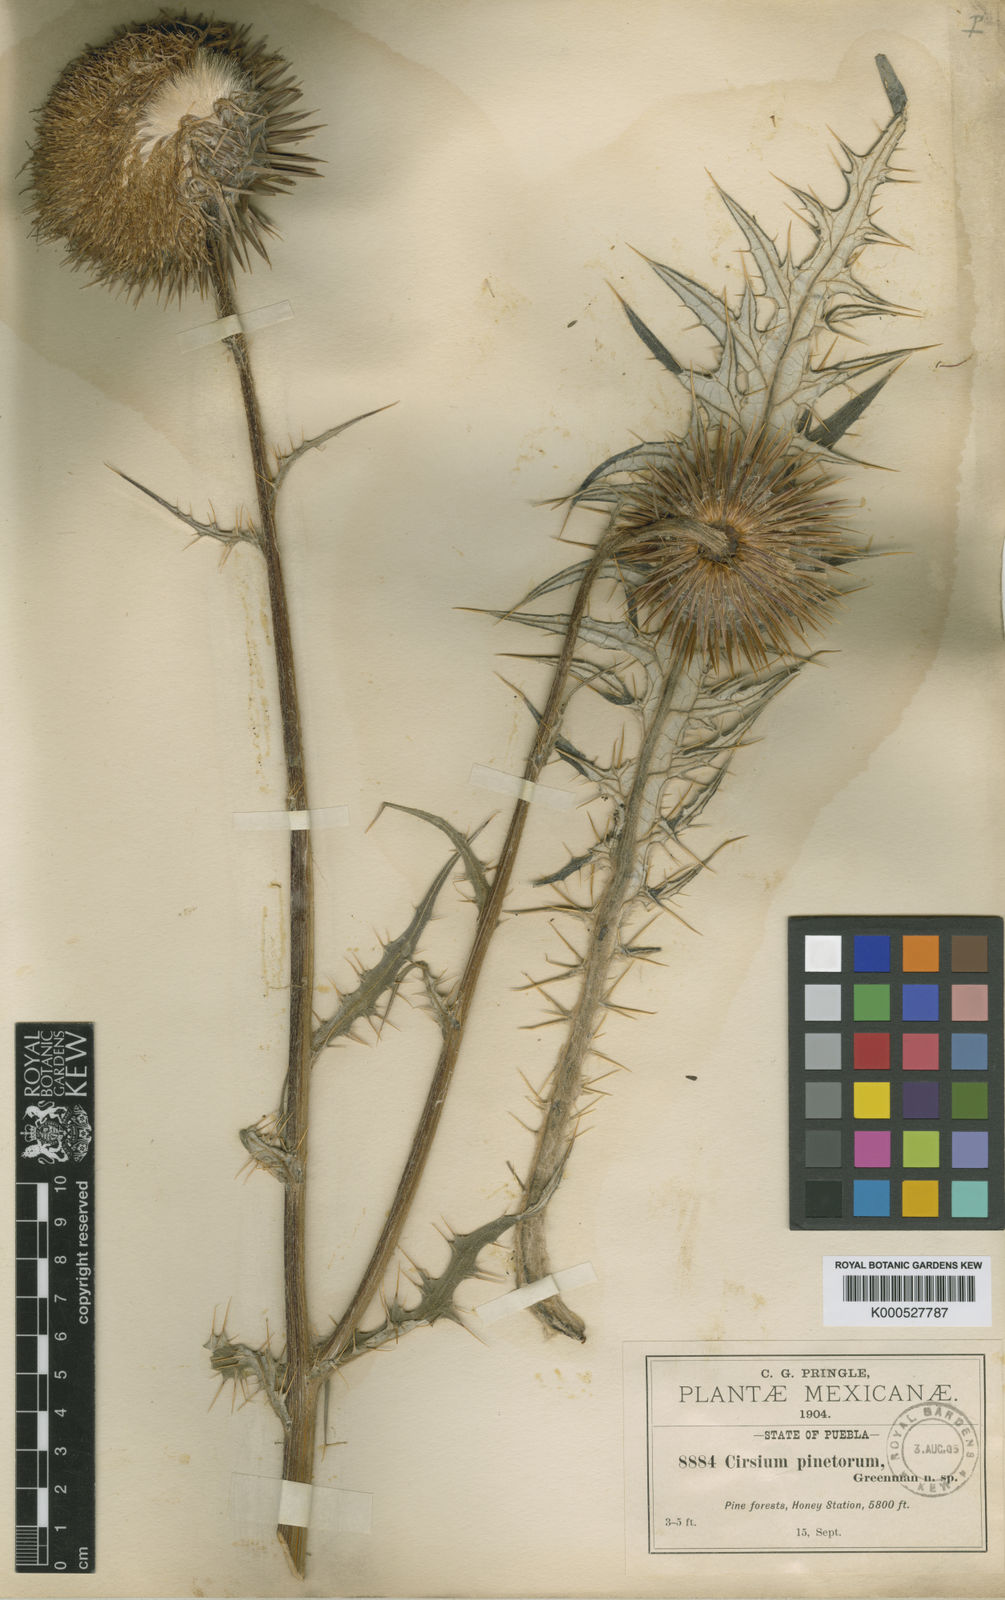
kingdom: Plantae
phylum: Tracheophyta
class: Magnoliopsida
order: Asterales
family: Asteraceae
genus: Cirsium
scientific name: Cirsium pinetorum
